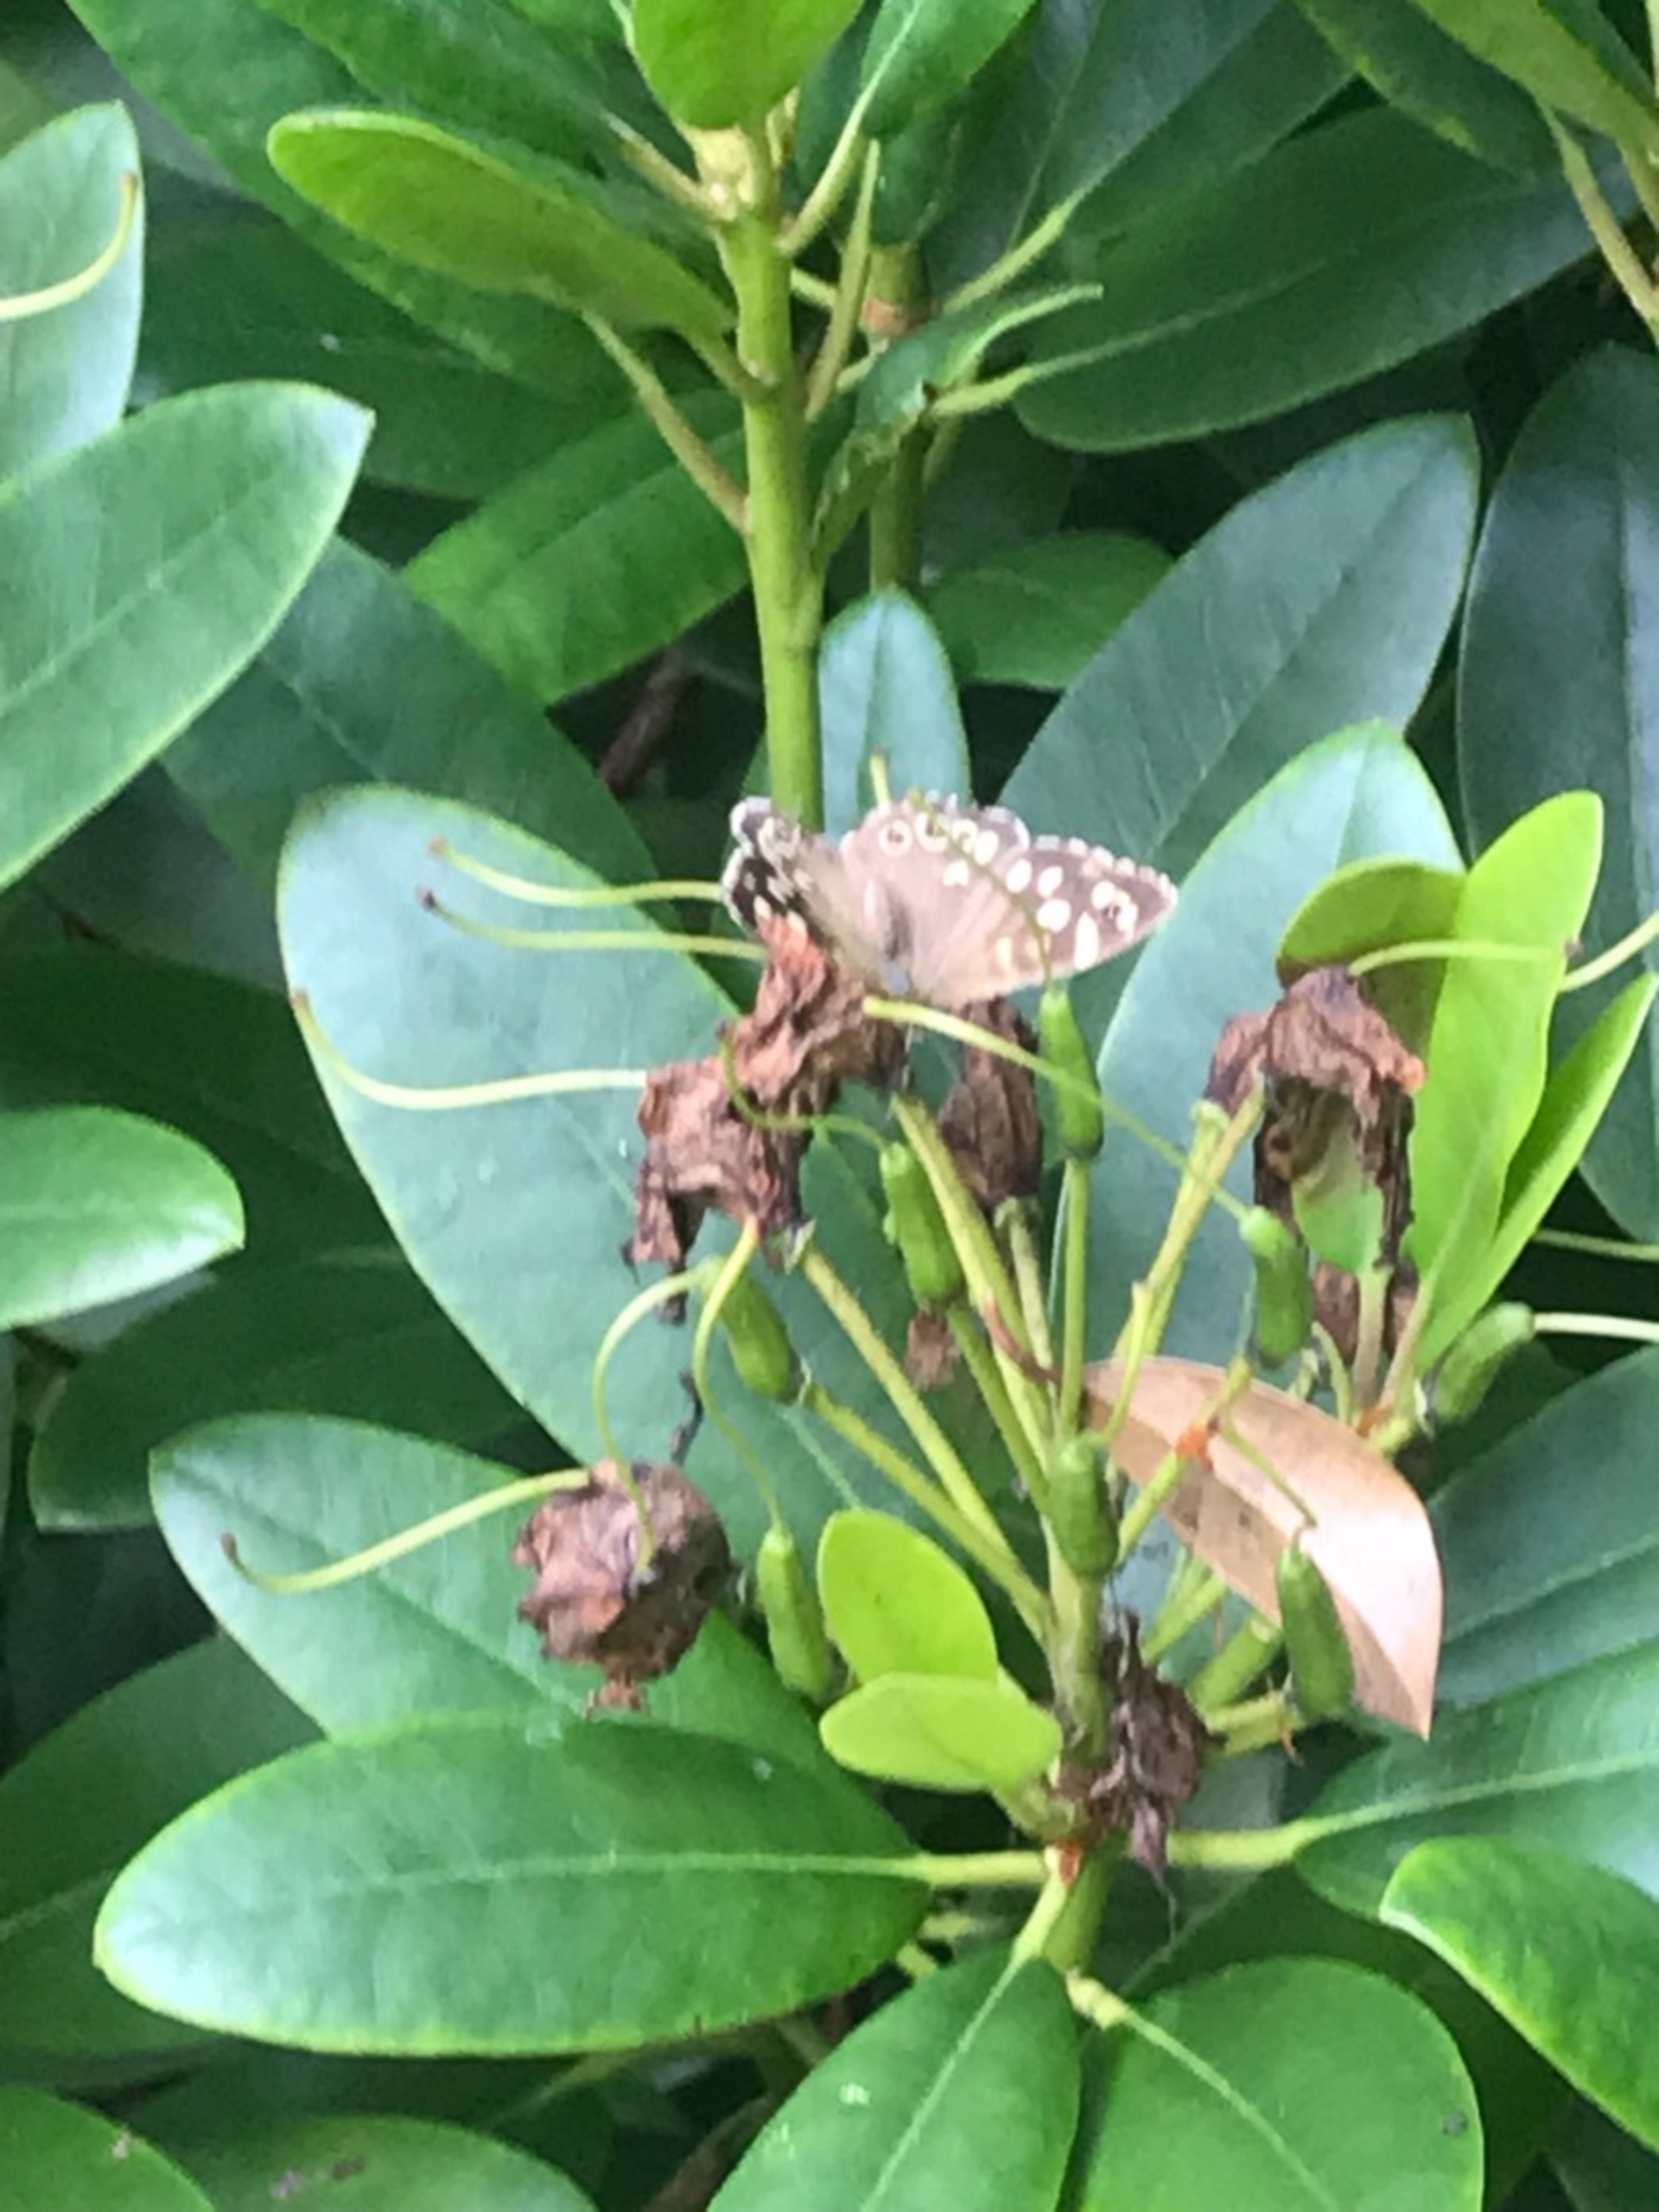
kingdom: Animalia
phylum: Arthropoda
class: Insecta
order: Lepidoptera
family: Nymphalidae
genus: Pararge
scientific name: Pararge aegeria
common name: Skovrandøje
